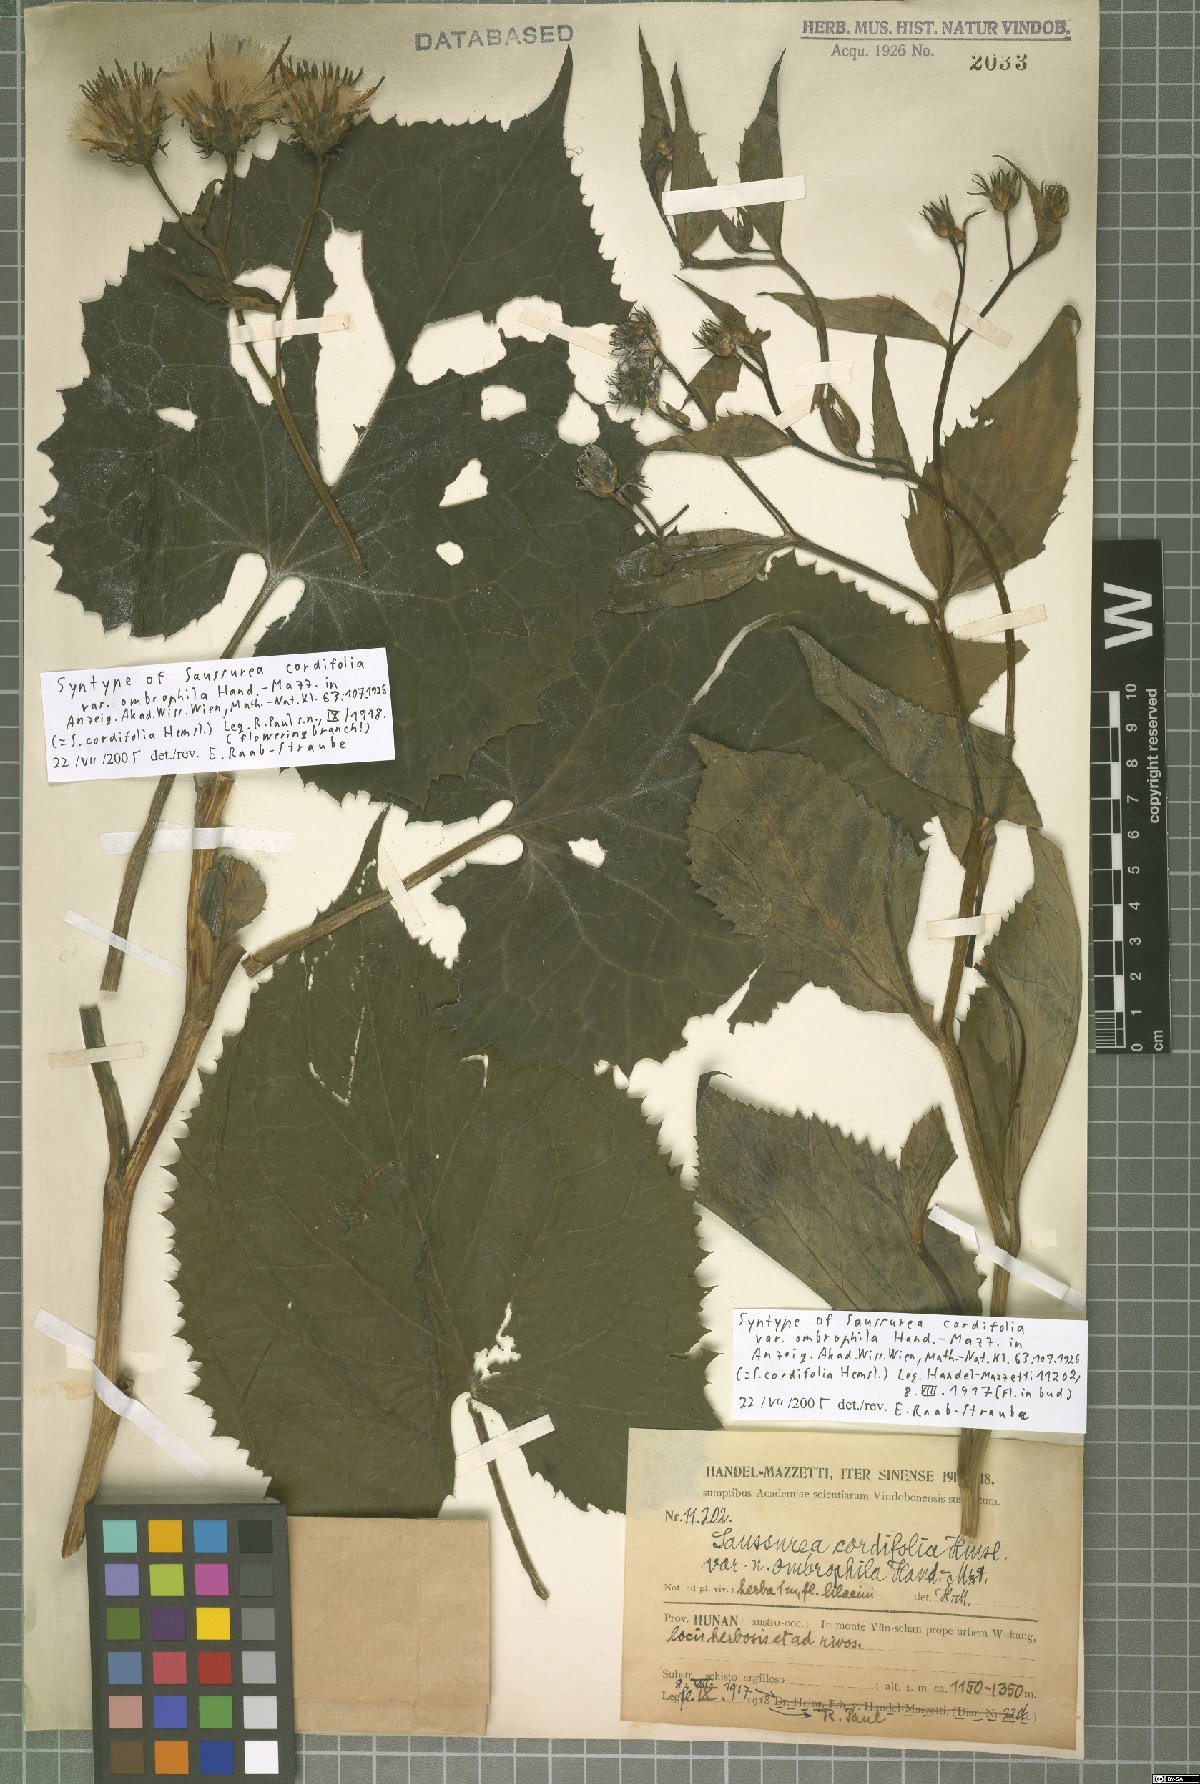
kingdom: Plantae
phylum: Tracheophyta
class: Magnoliopsida
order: Asterales
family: Asteraceae
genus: Saussurea
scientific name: Saussurea cordifolia
